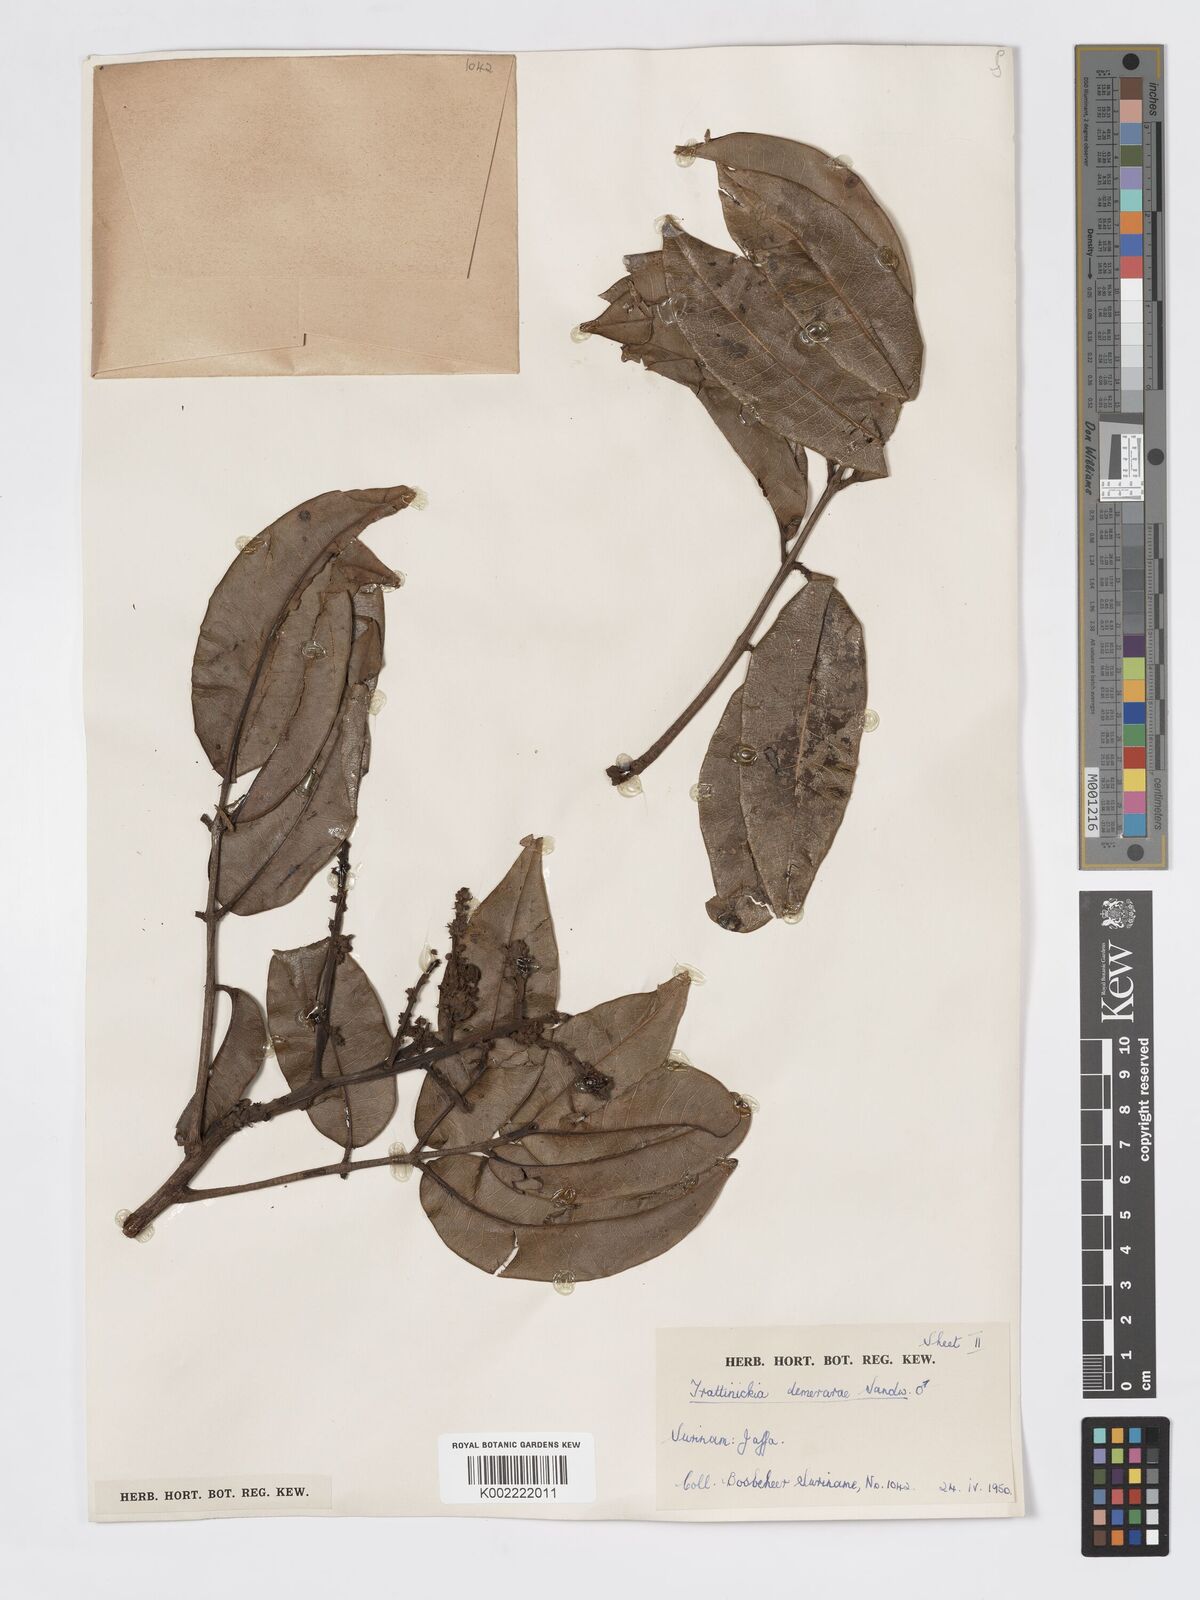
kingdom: Plantae
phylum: Tracheophyta
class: Magnoliopsida
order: Sapindales
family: Burseraceae
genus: Trattinnickia
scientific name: Trattinnickia demerarae
